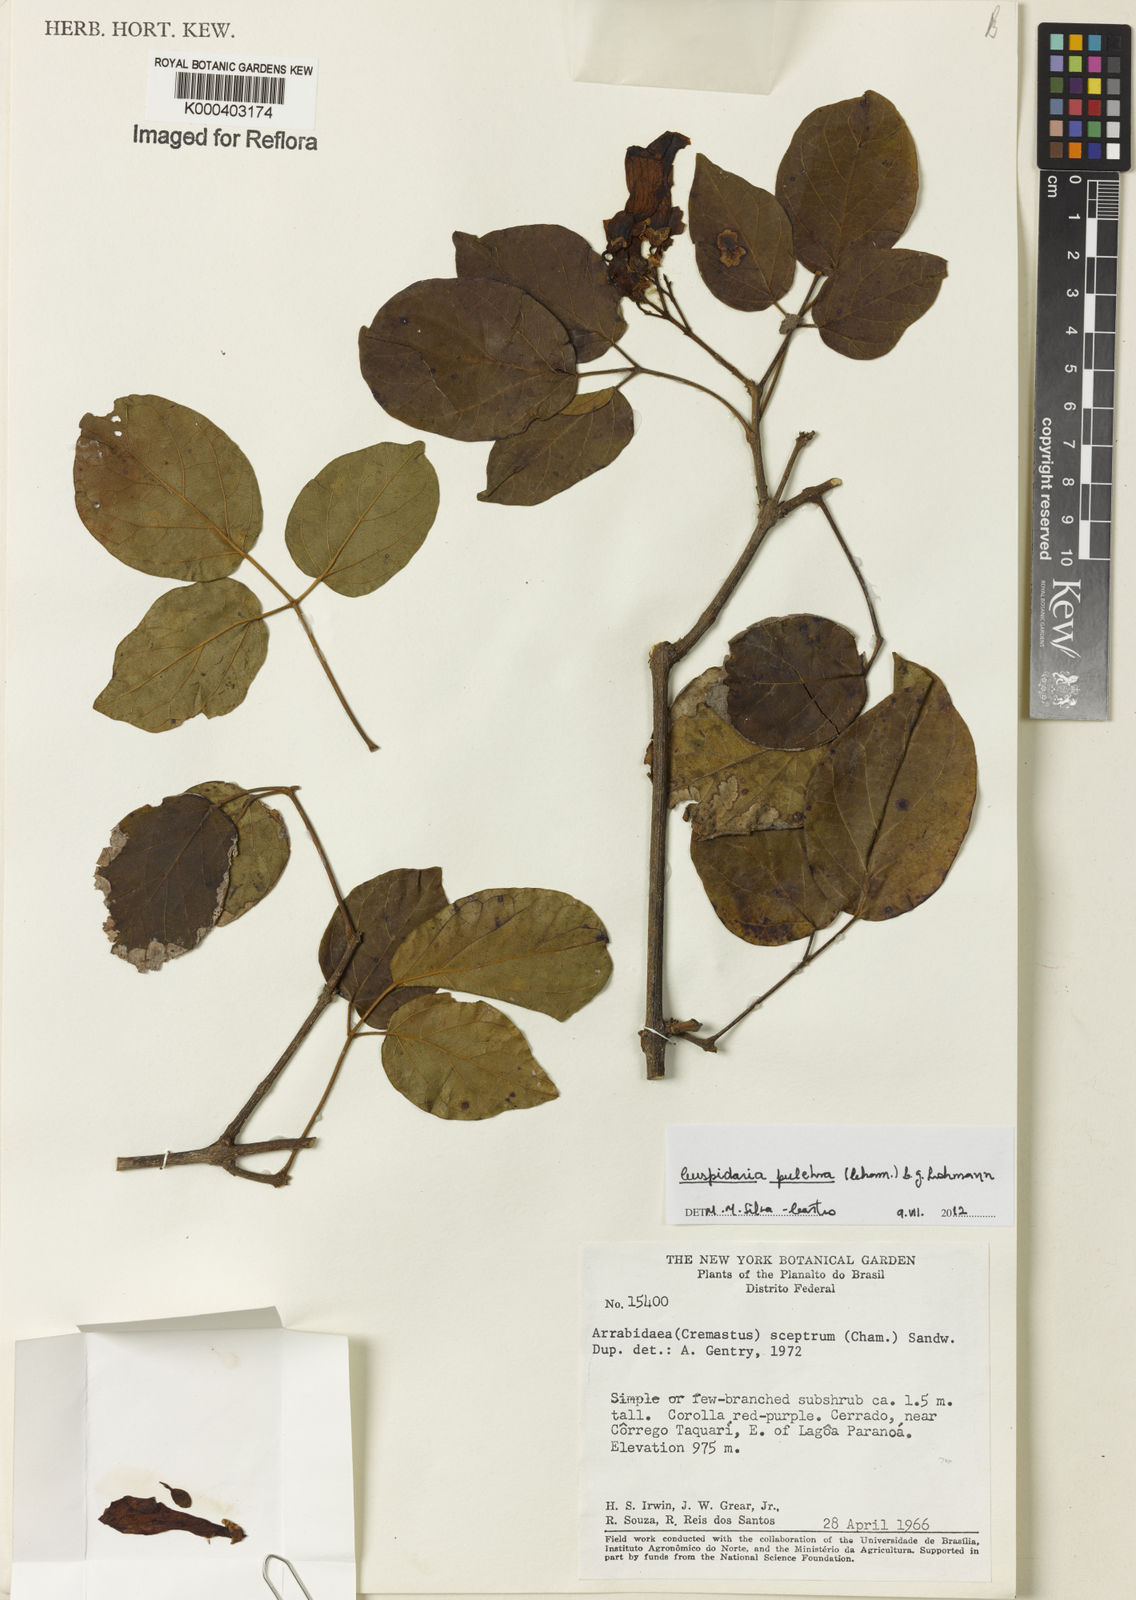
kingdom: Plantae
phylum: Tracheophyta
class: Magnoliopsida
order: Lamiales
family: Bignoniaceae
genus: Cuspidaria
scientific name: Cuspidaria pulchra
